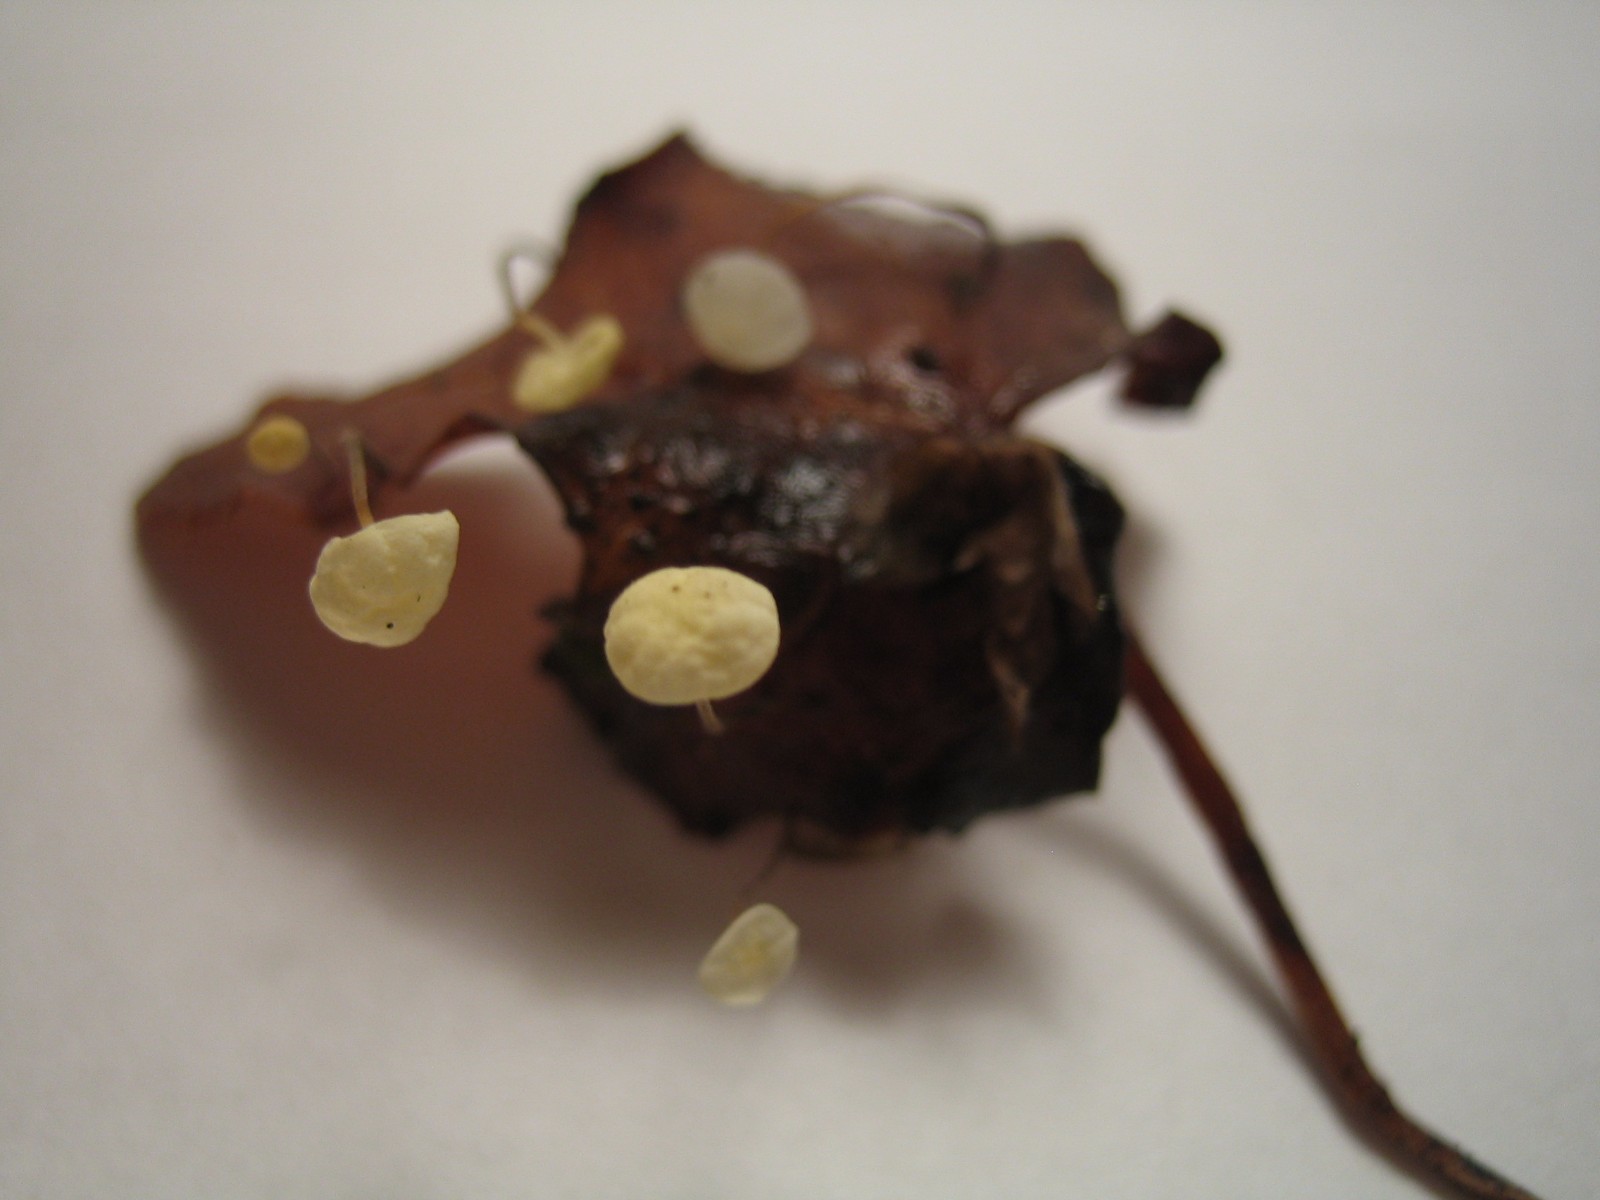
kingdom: Fungi
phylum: Basidiomycota
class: Agaricomycetes
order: Agaricales
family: Marasmiaceae
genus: Marasmius
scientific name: Marasmius epiphylloides
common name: vedbend-bruskhat
